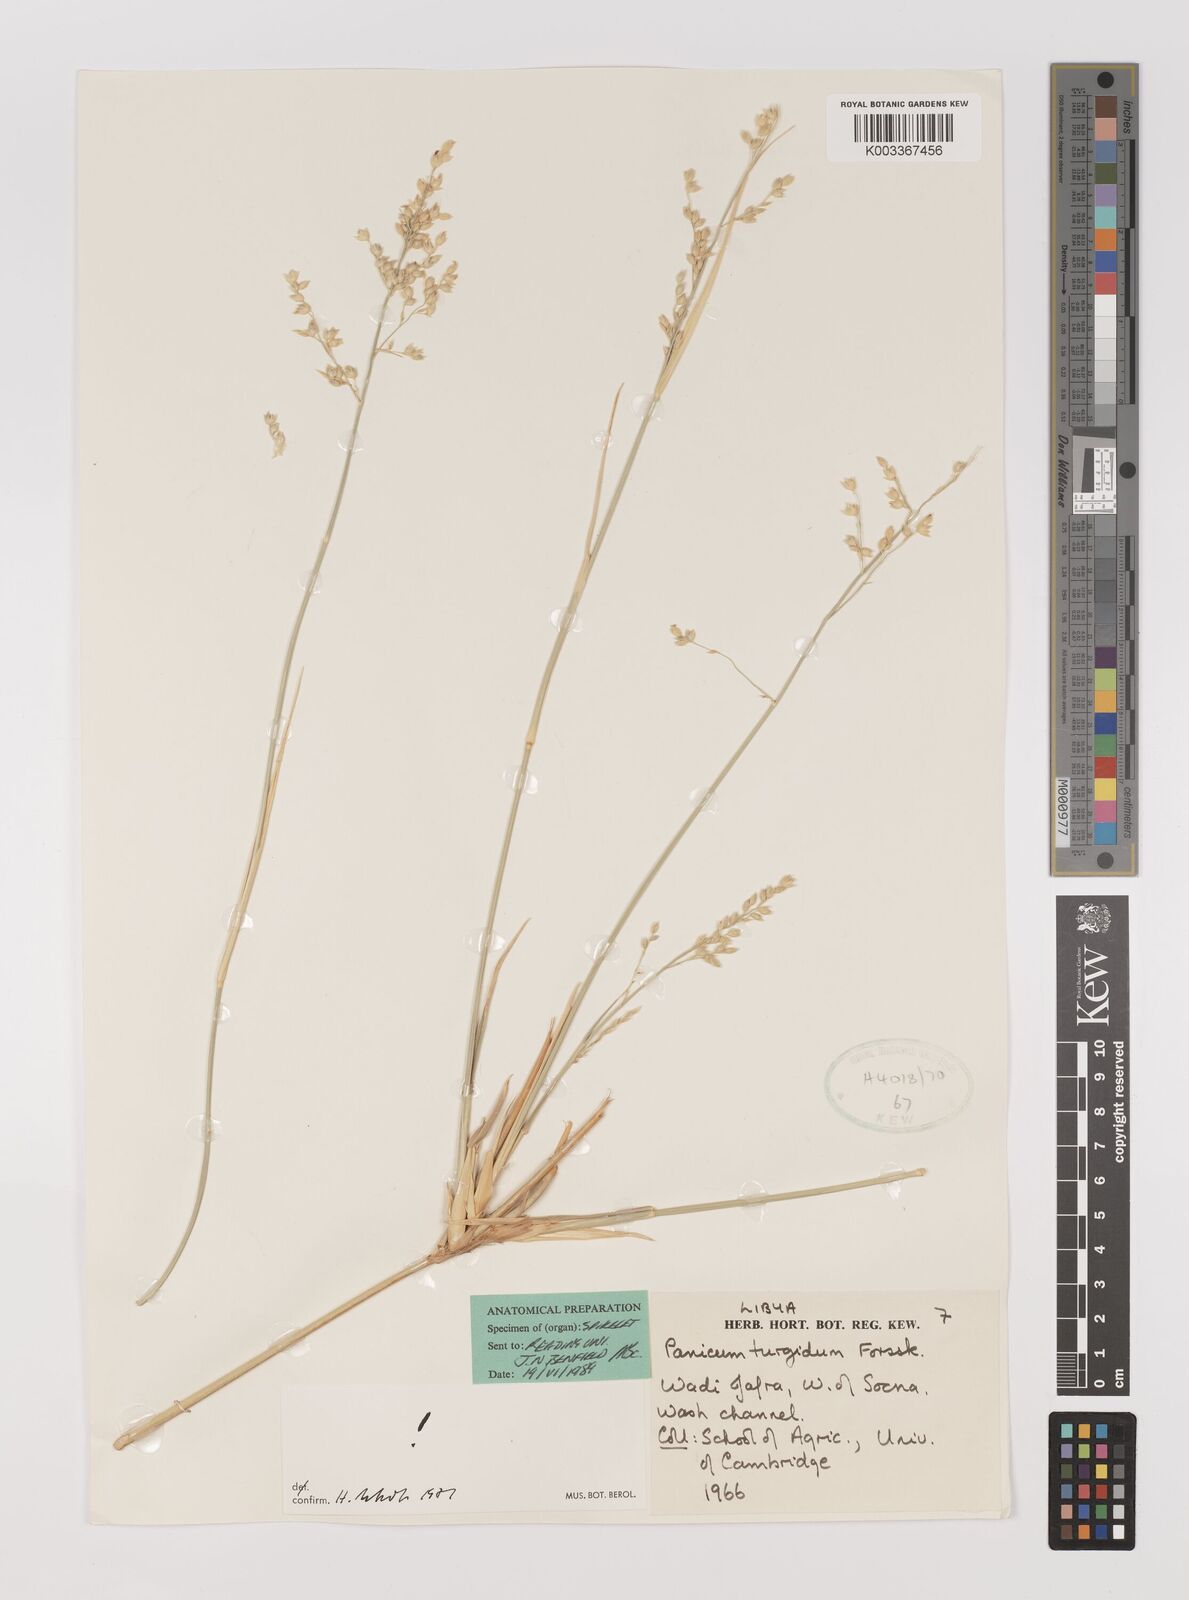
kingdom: Plantae
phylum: Tracheophyta
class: Liliopsida
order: Poales
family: Poaceae
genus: Panicum
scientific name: Panicum turgidum
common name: Desert grass
